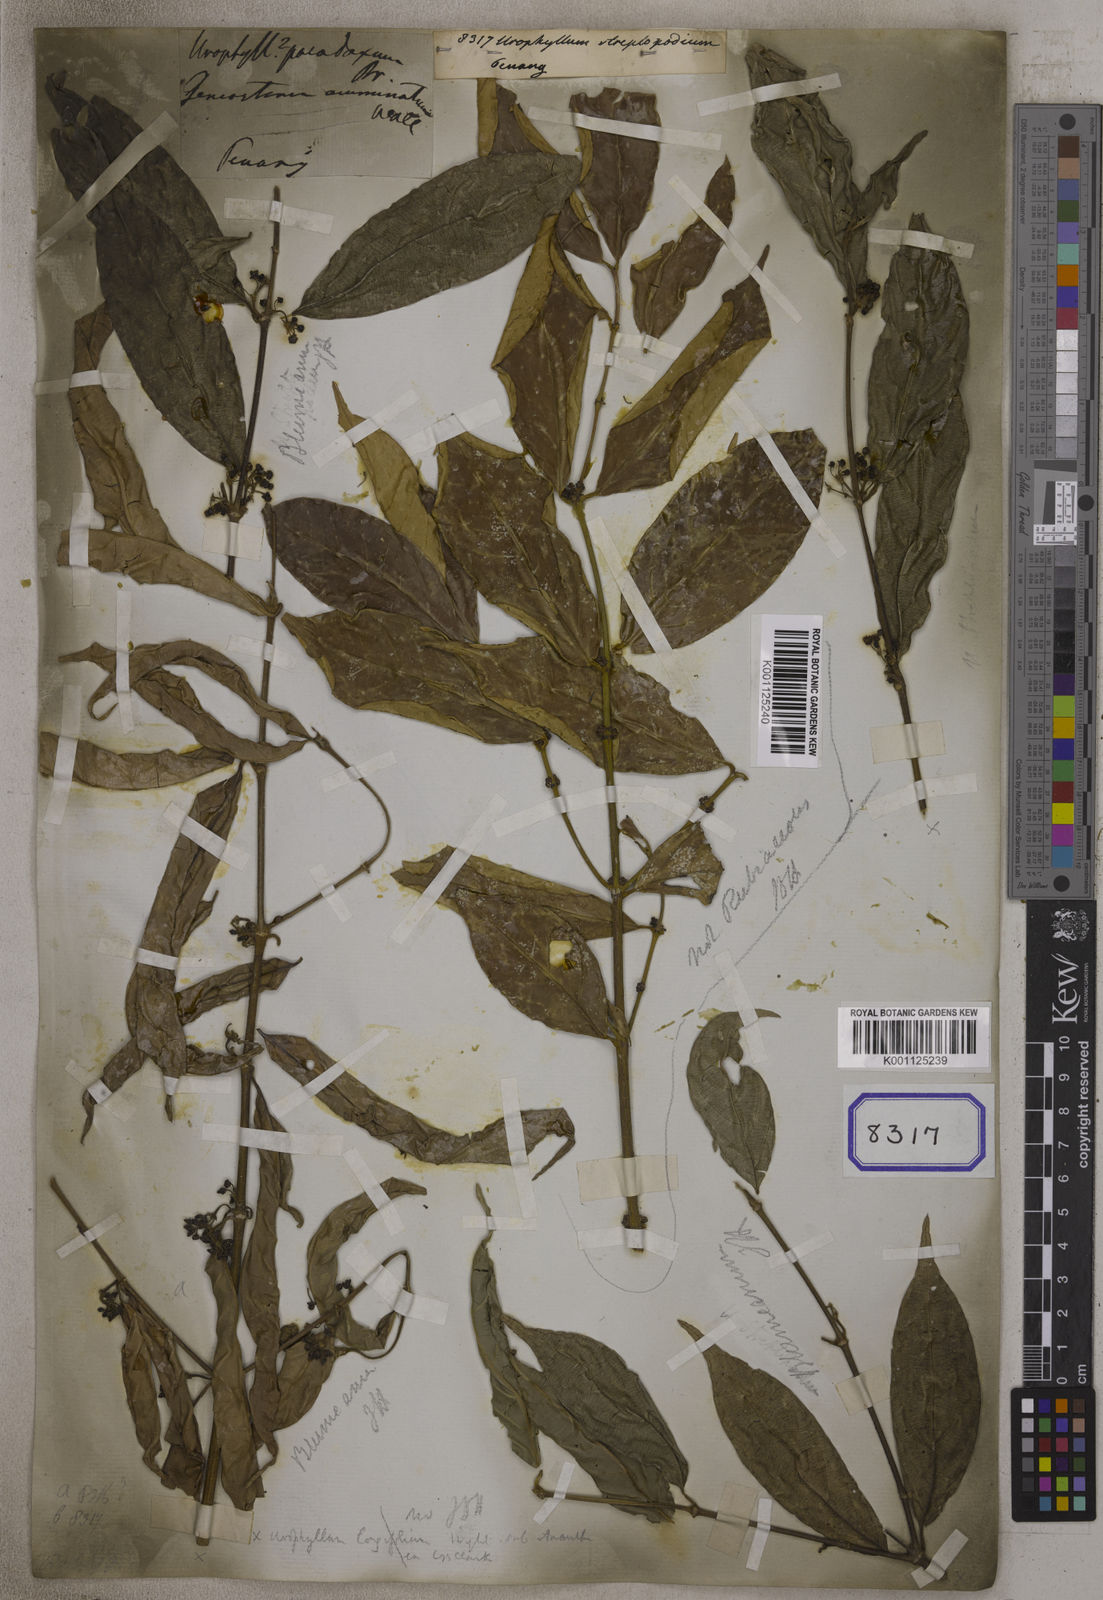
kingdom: Plantae
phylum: Tracheophyta
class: Magnoliopsida
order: Gentianales
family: Rubiaceae
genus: Urophyllum
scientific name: Urophyllum
